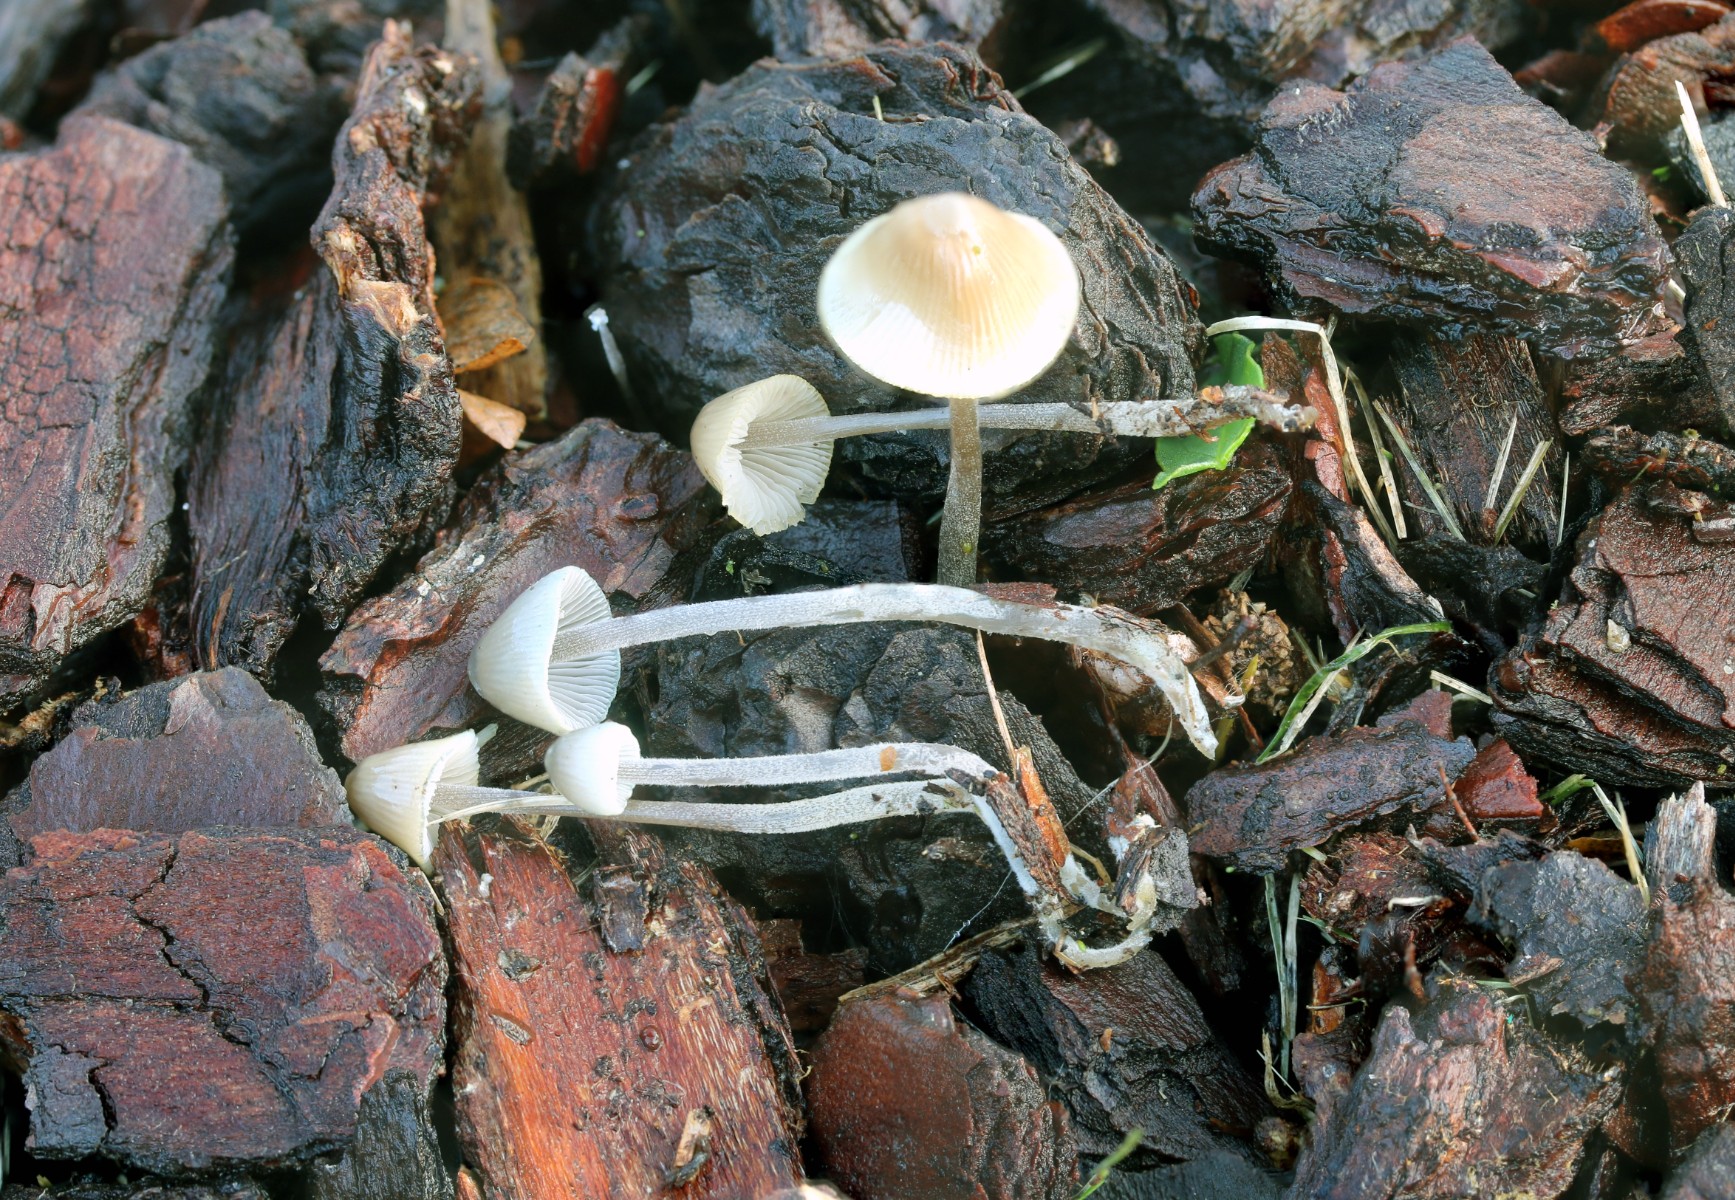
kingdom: Fungi
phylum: Basidiomycota
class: Agaricomycetes
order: Agaricales
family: Mycenaceae
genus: Mycena
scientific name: Mycena amicta
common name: iris-huesvamp
